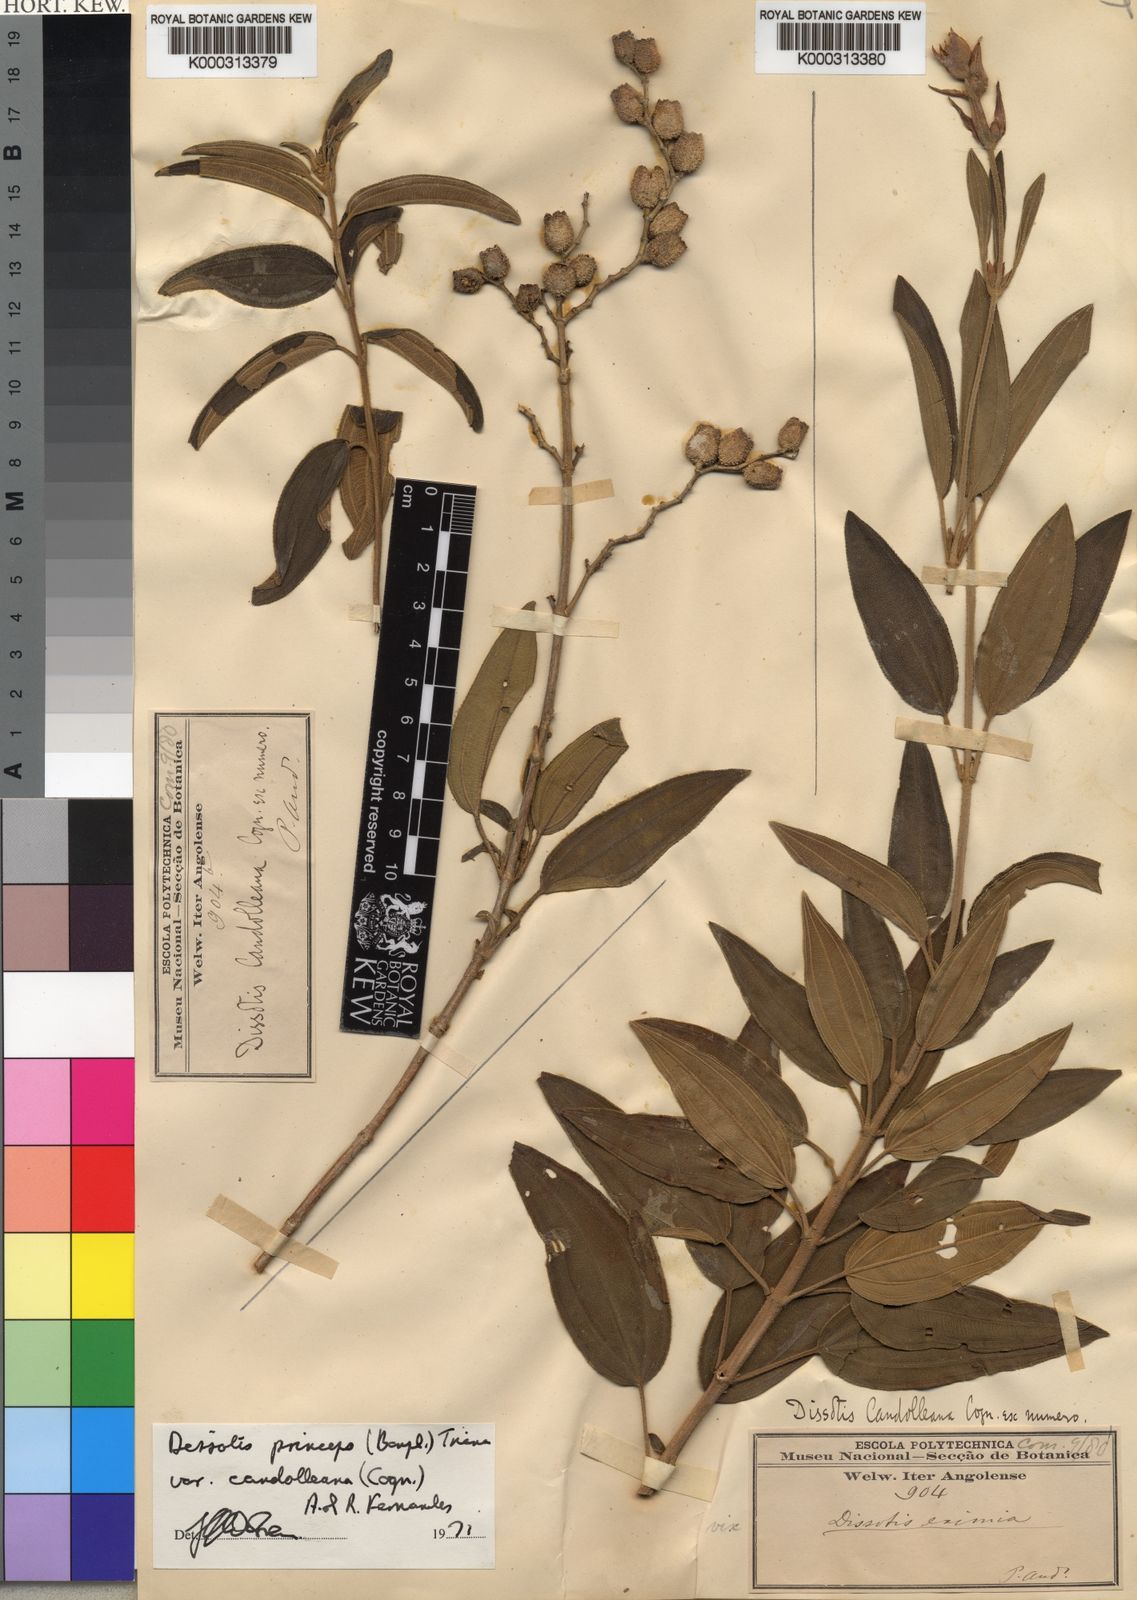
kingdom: Plantae
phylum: Tracheophyta
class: Magnoliopsida
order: Myrtales
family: Melastomataceae
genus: Rosettea
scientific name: Rosettea princeps
